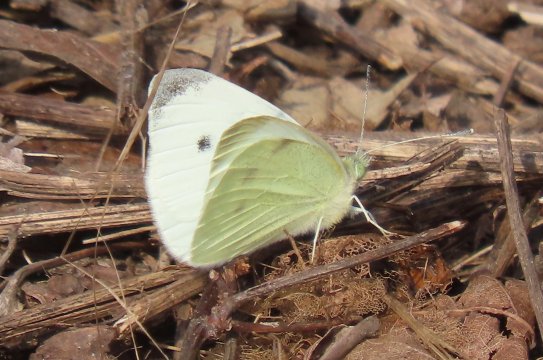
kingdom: Animalia
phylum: Arthropoda
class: Insecta
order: Lepidoptera
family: Pieridae
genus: Pieris
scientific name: Pieris rapae
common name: Cabbage White
